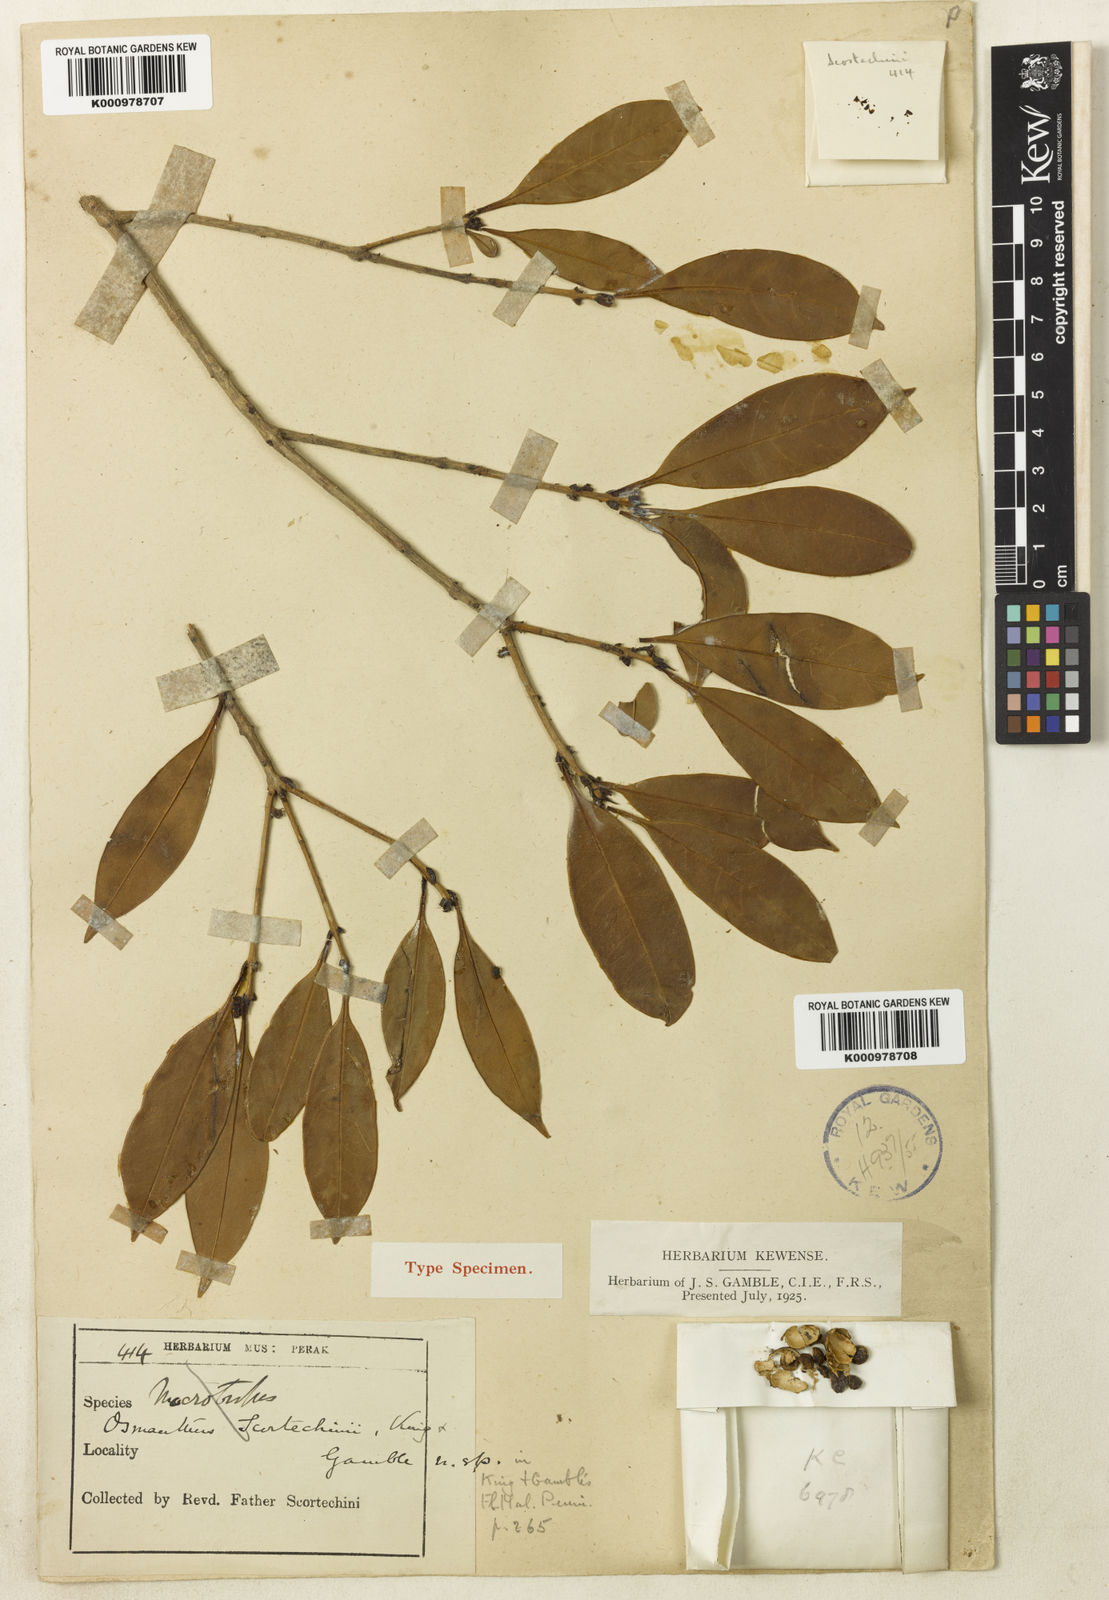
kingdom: Plantae
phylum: Tracheophyta
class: Magnoliopsida
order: Lamiales
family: Oleaceae
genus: Cartrema
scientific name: Cartrema scortechinii
